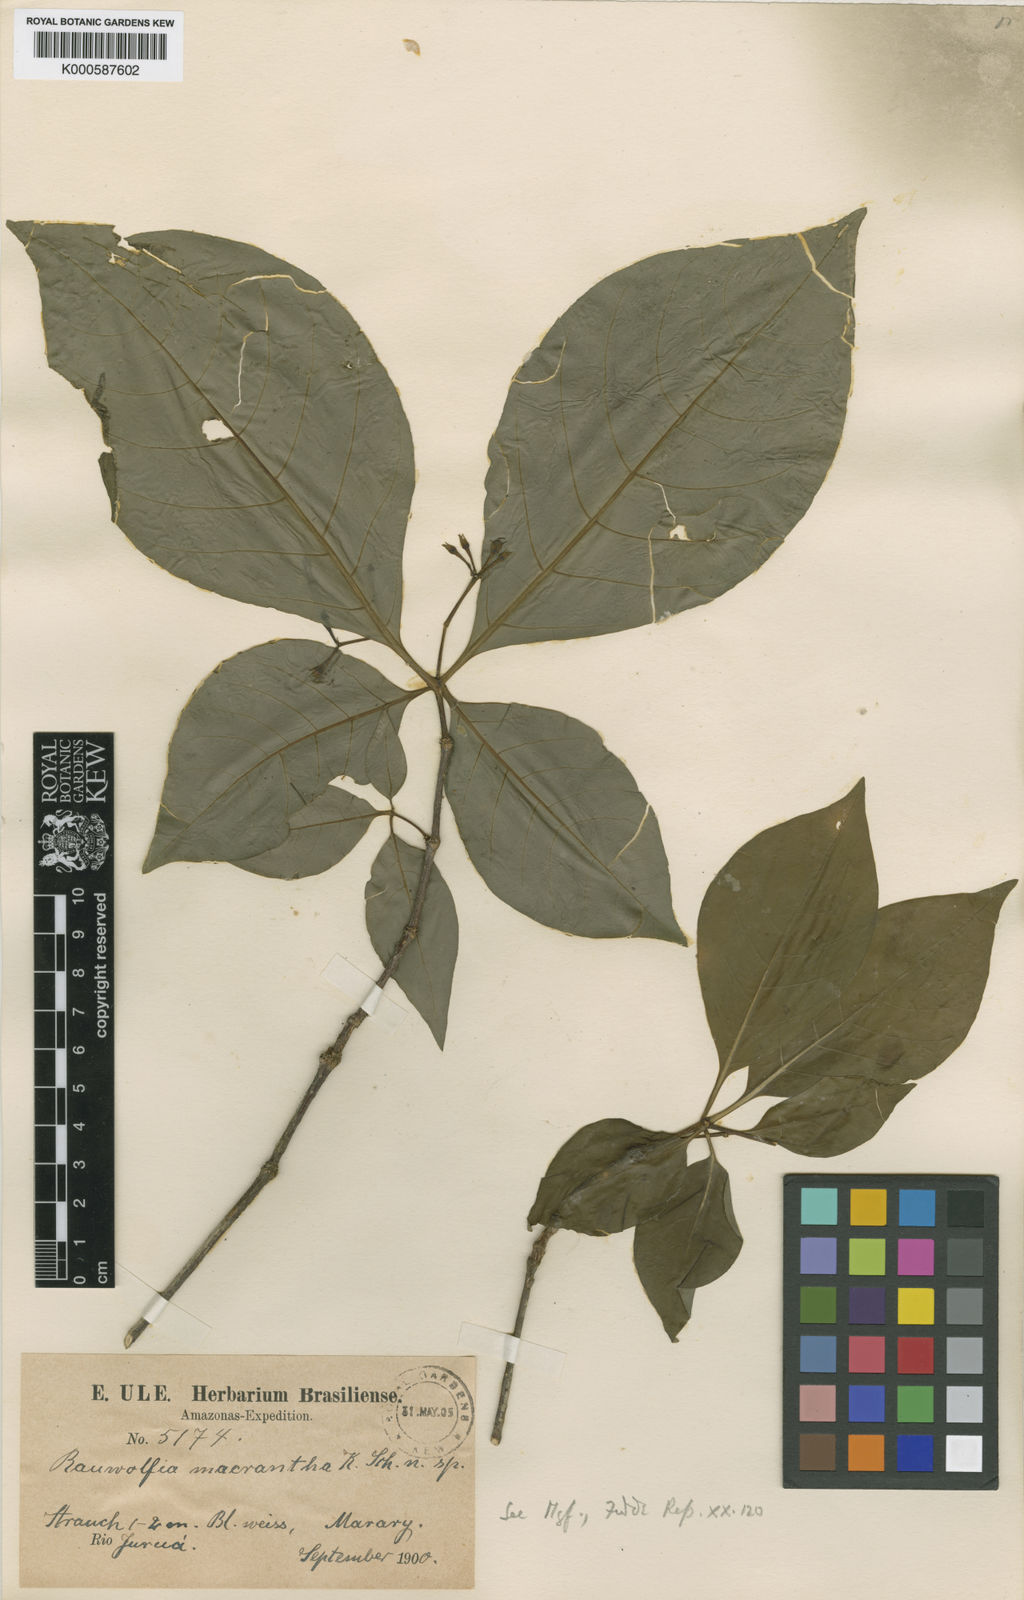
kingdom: Plantae
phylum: Tracheophyta
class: Magnoliopsida
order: Gentianales
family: Apocynaceae
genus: Rauvolfia
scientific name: Rauvolfia macrantha
